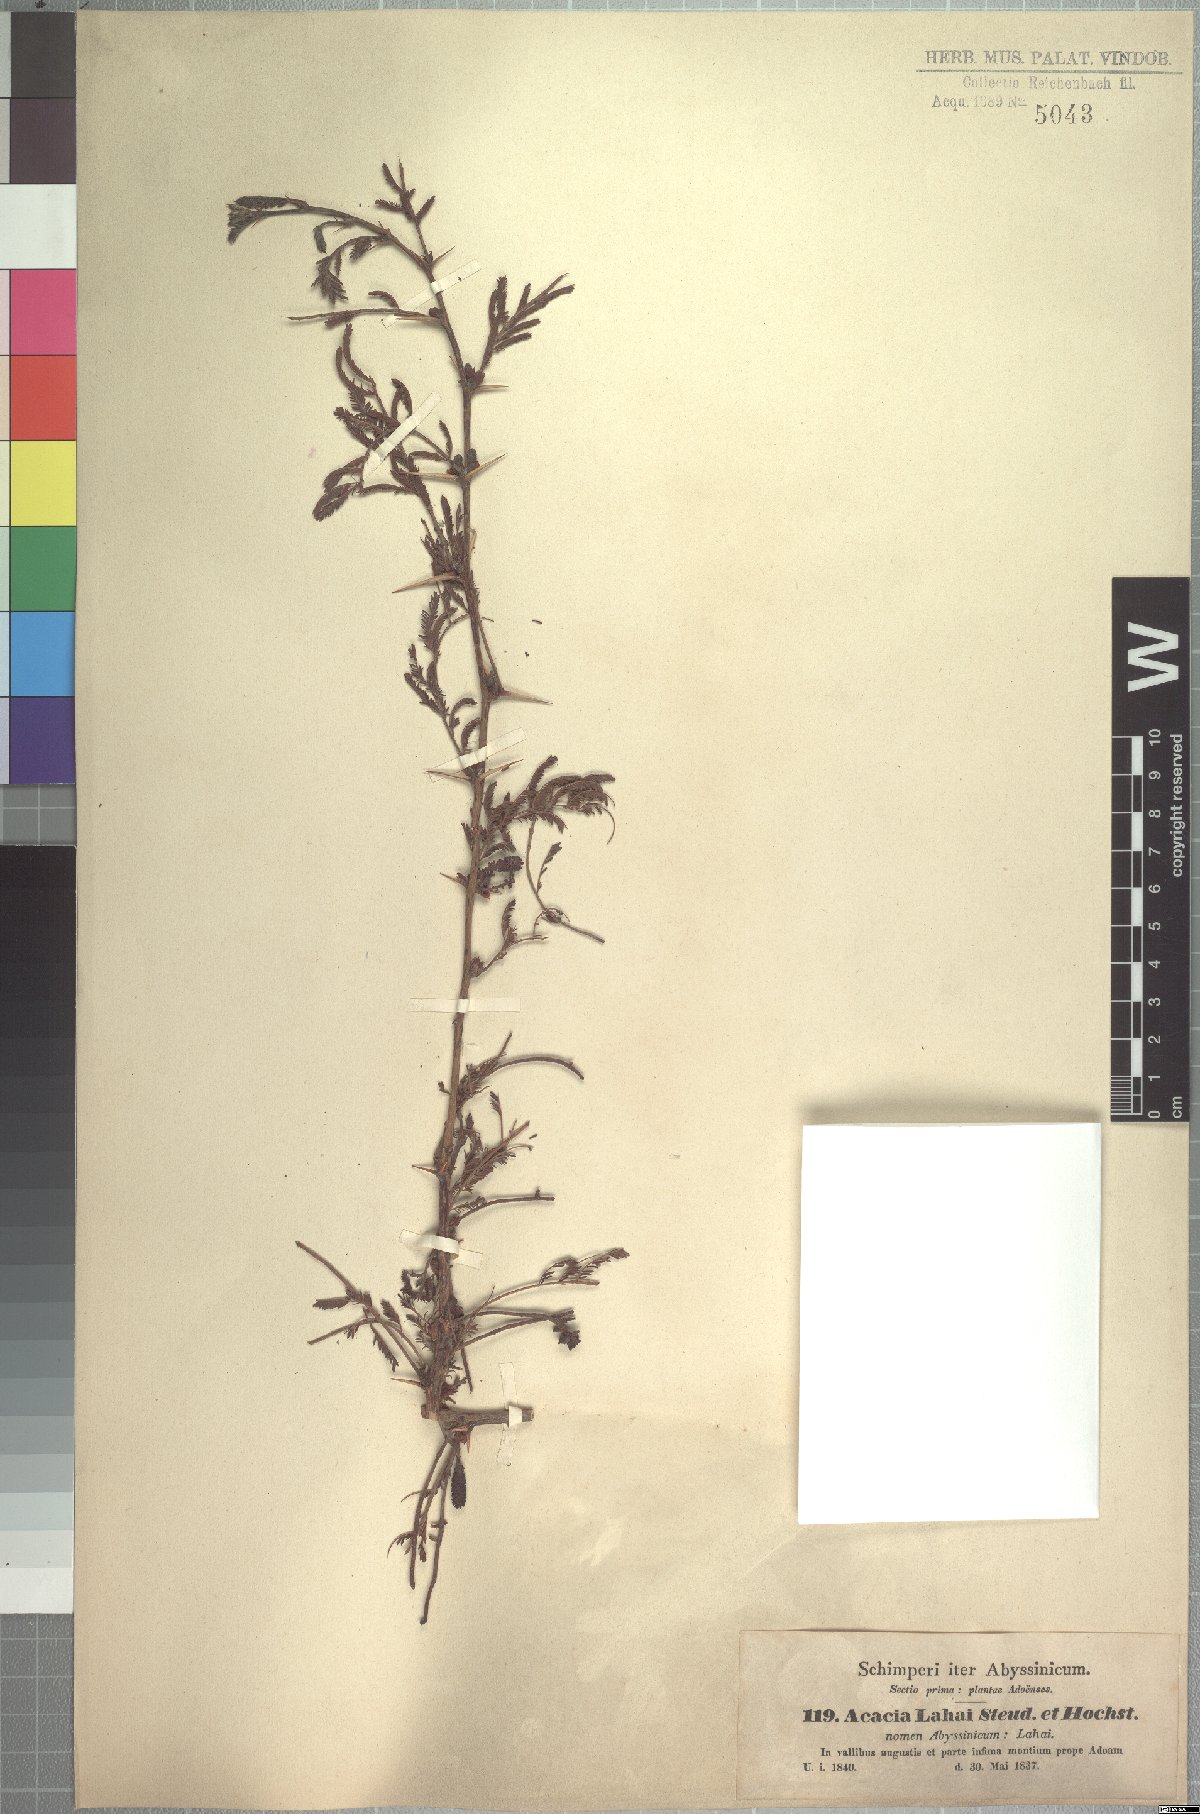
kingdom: Plantae
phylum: Tracheophyta
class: Magnoliopsida
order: Fabales
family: Fabaceae
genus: Vachellia
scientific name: Vachellia lahai
